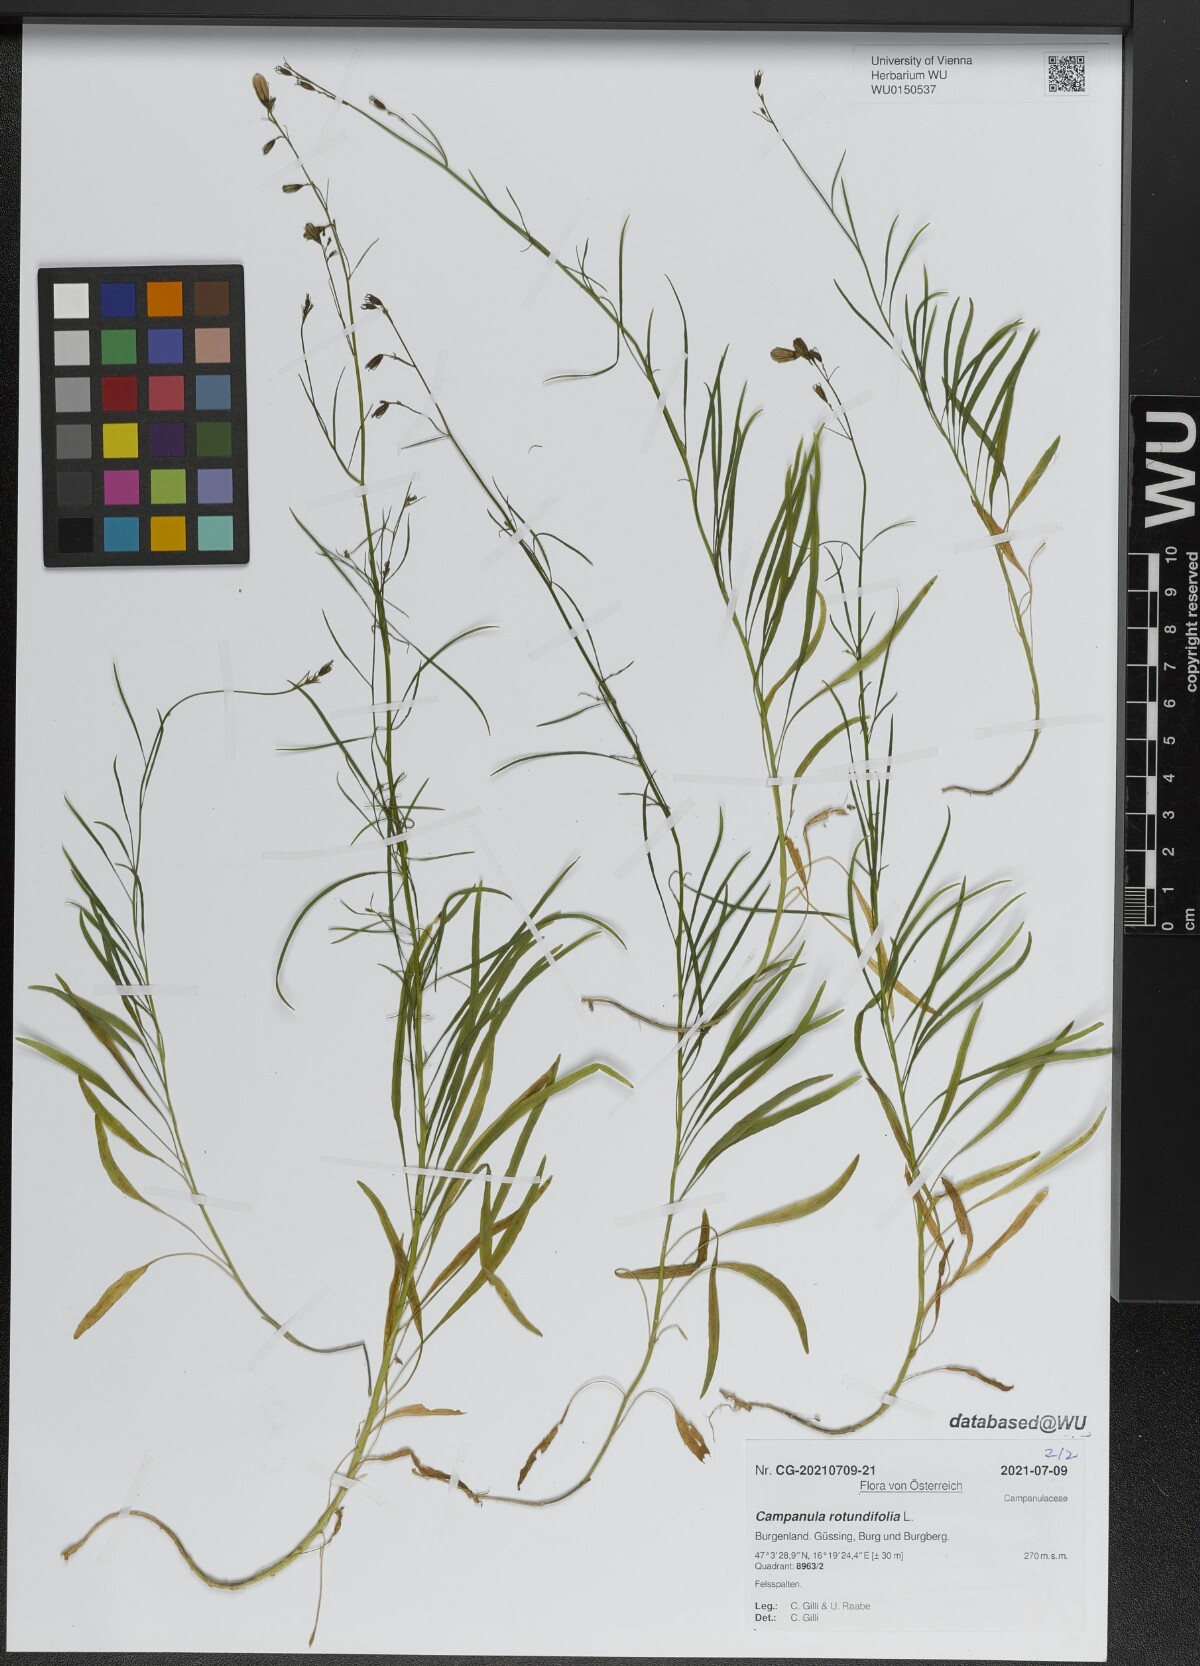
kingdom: Plantae
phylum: Tracheophyta
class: Magnoliopsida
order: Asterales
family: Campanulaceae
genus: Campanula
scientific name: Campanula rotundifolia
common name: Harebell
